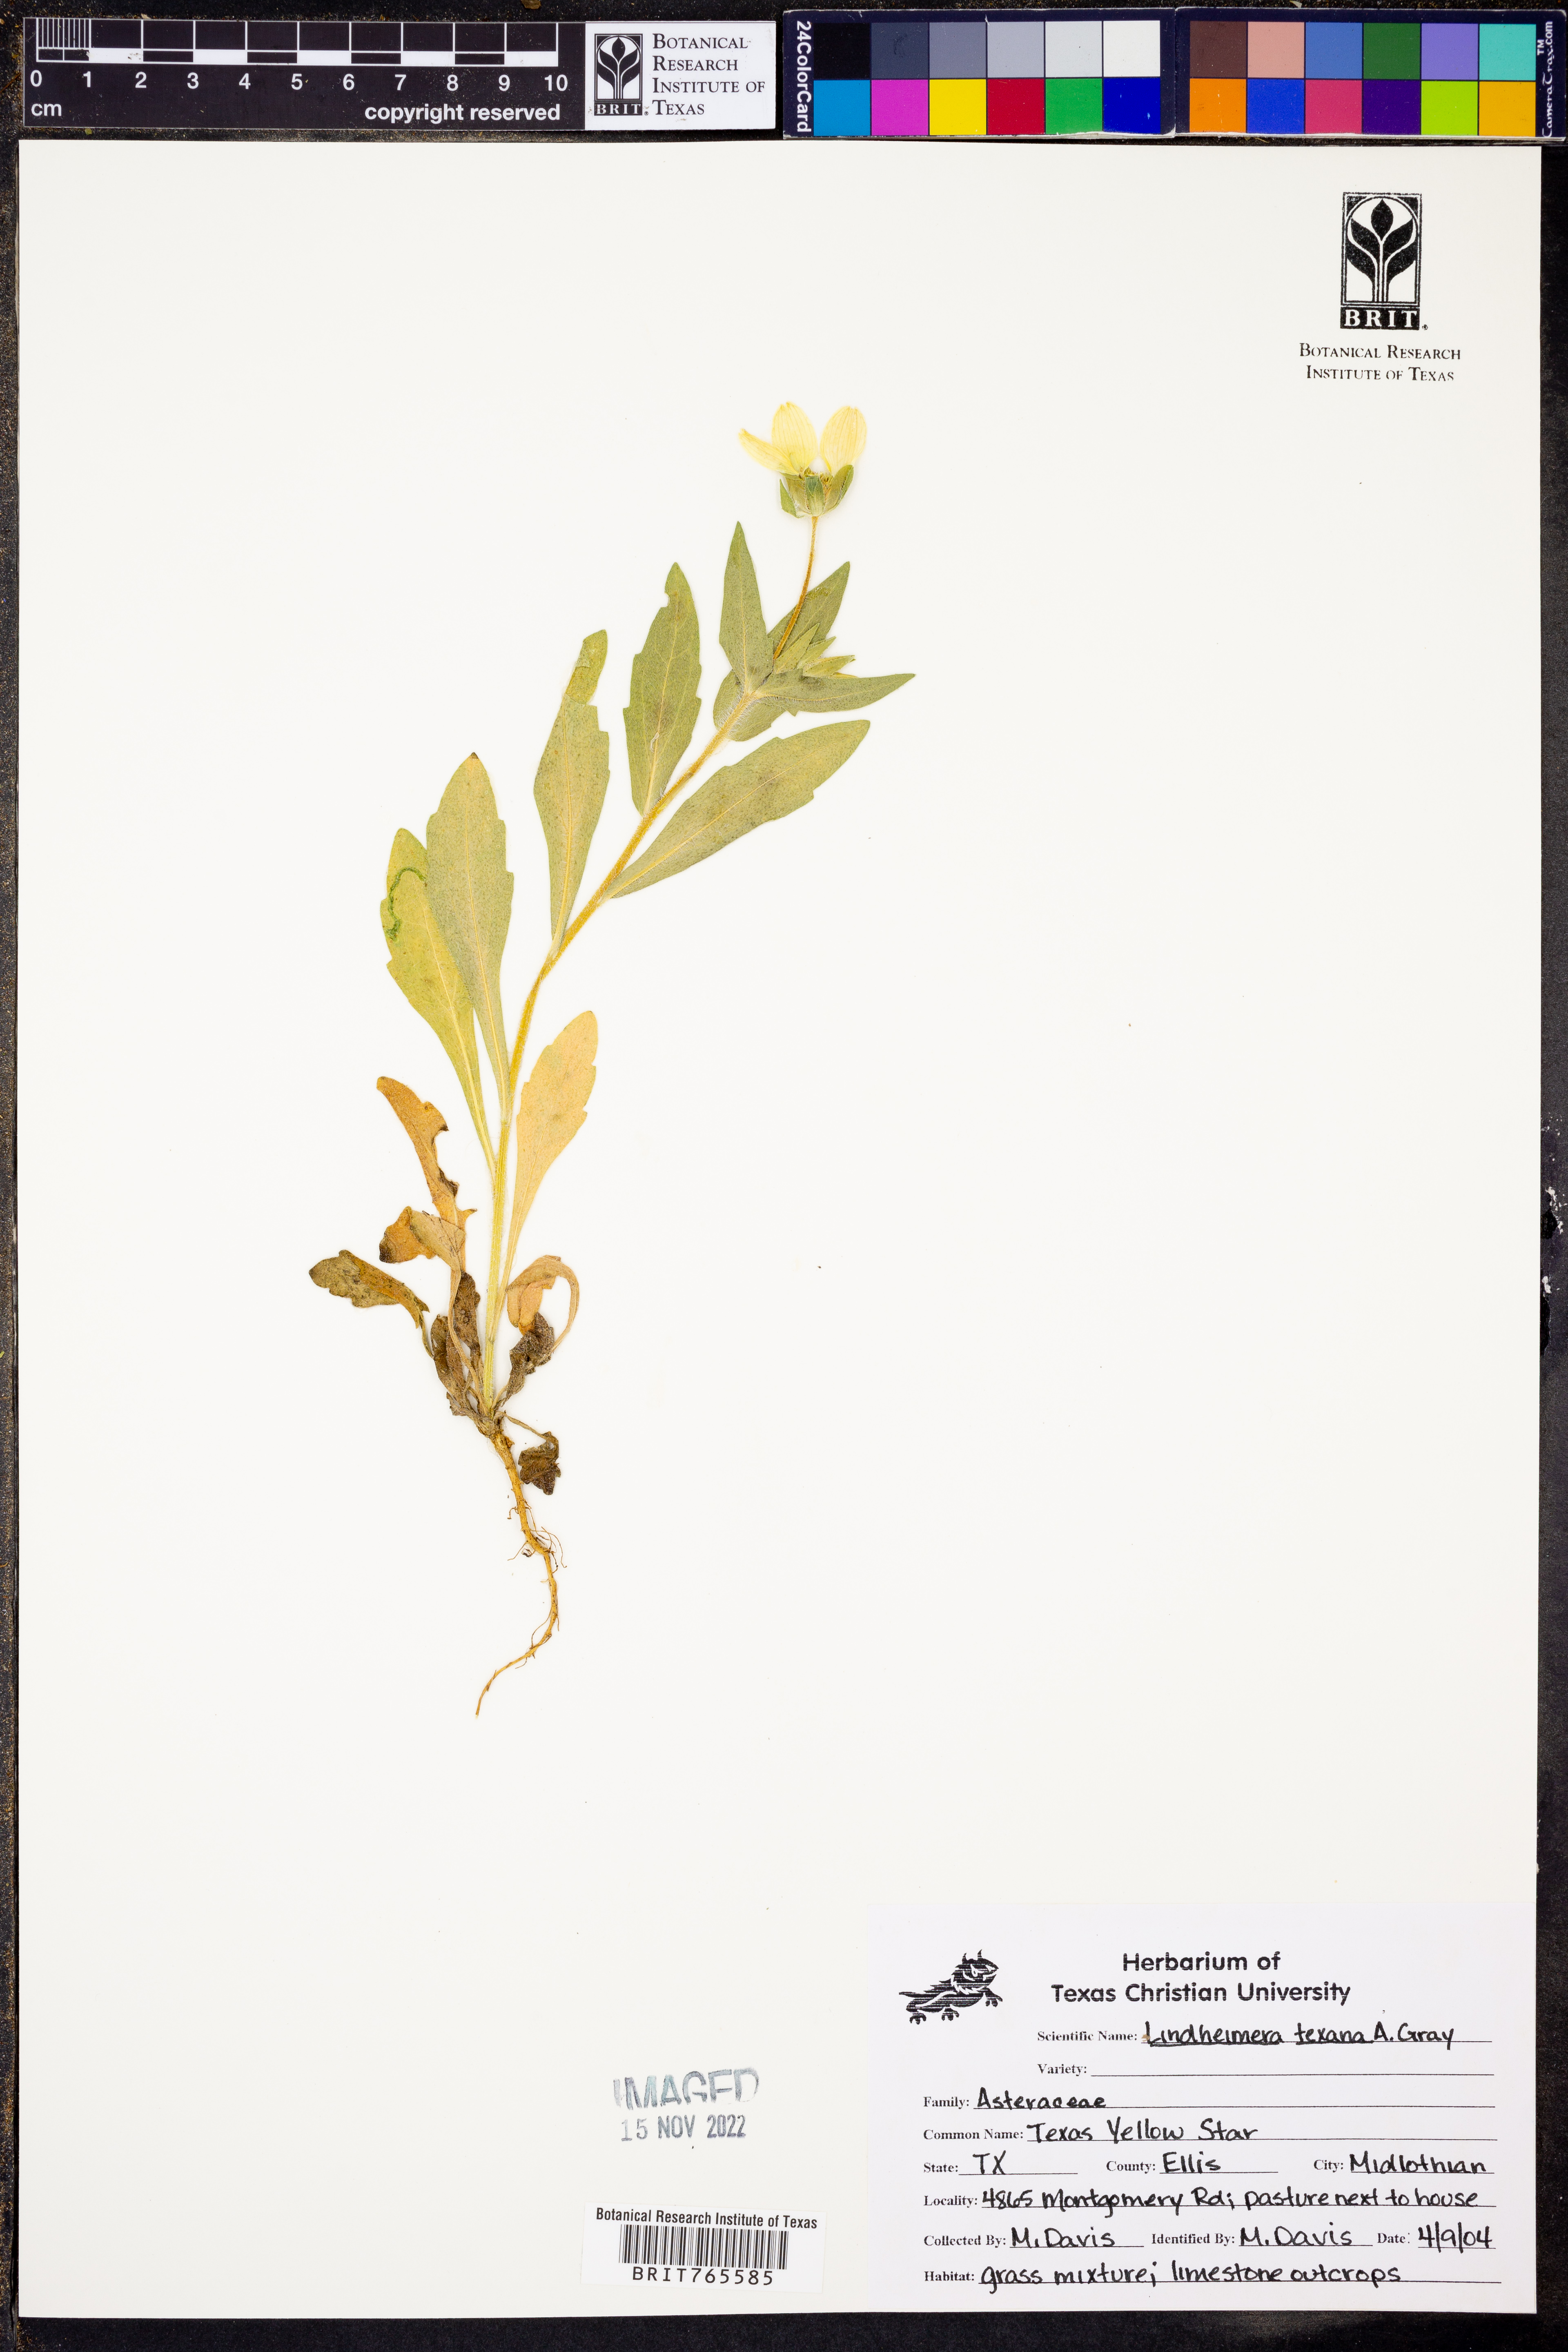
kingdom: Plantae
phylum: Tracheophyta
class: Magnoliopsida
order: Asterales
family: Asteraceae
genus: Lindheimera
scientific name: Lindheimera texana
